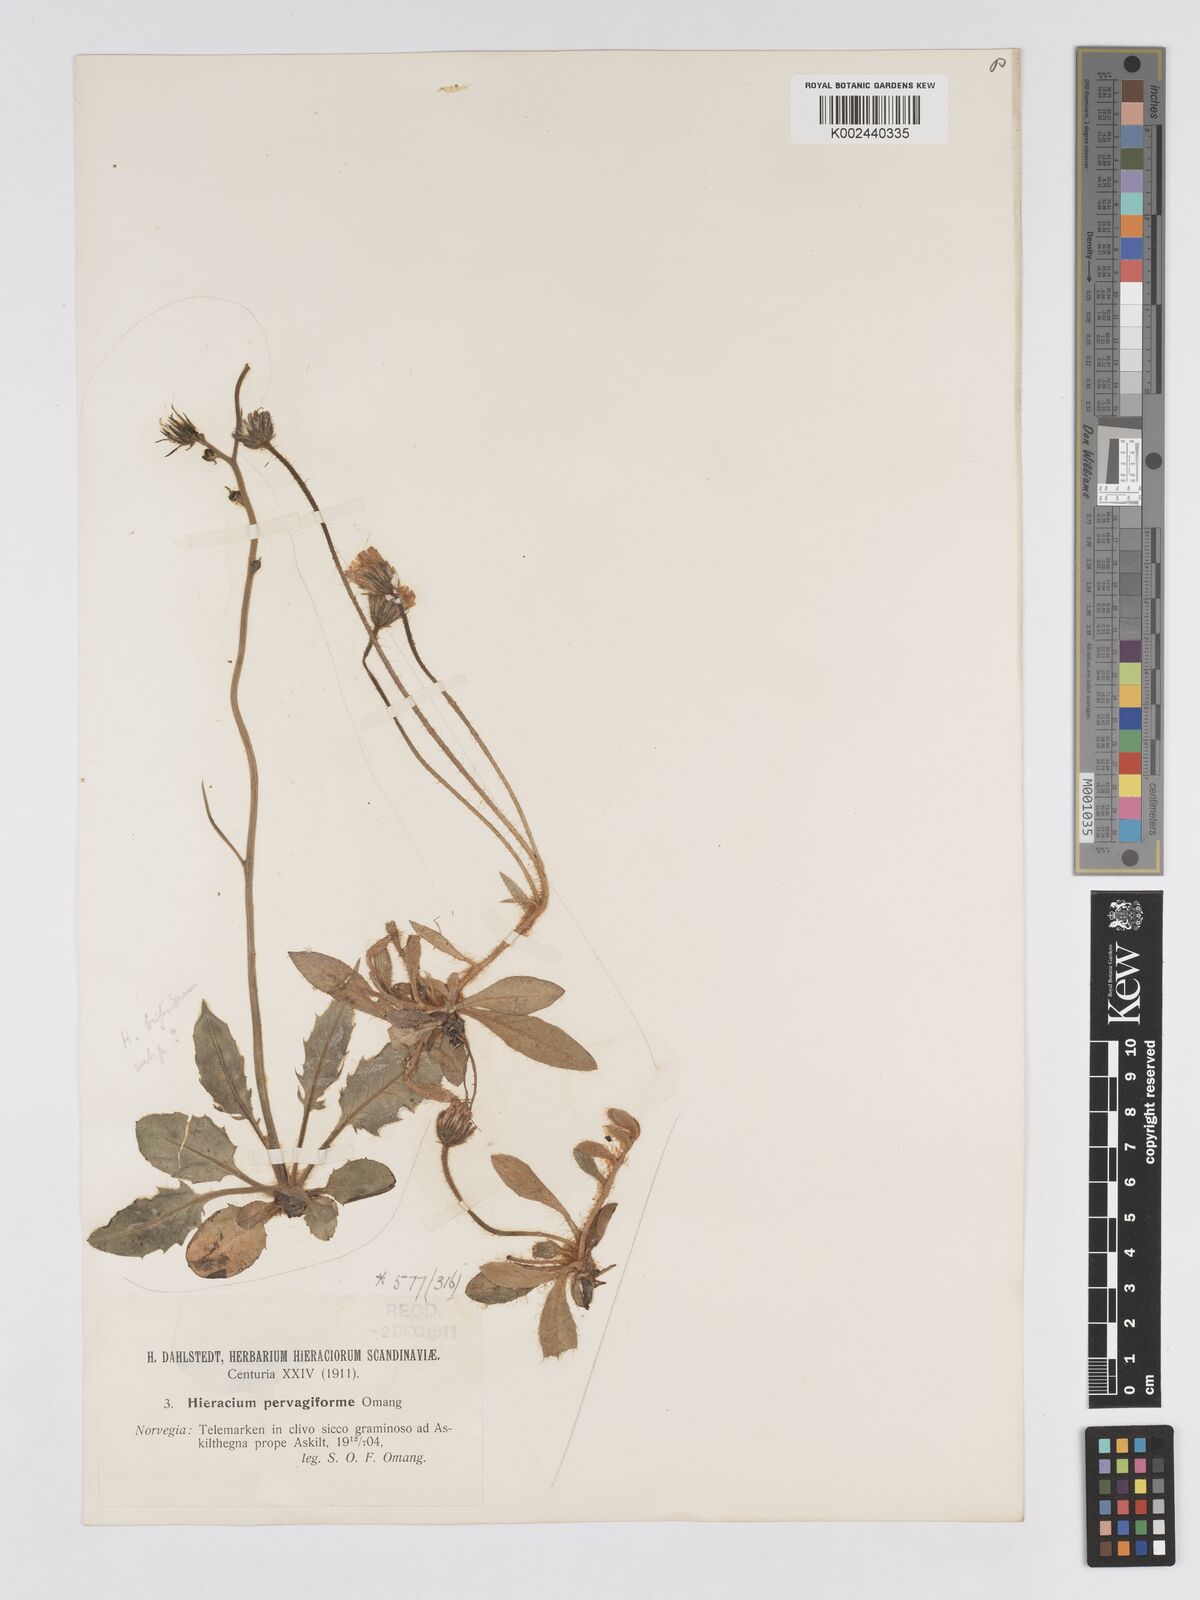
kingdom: Plantae
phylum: Tracheophyta
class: Magnoliopsida
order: Asterales
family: Asteraceae
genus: Pilosella
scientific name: Pilosella officinarum
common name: Mouse-ear hawkweed
